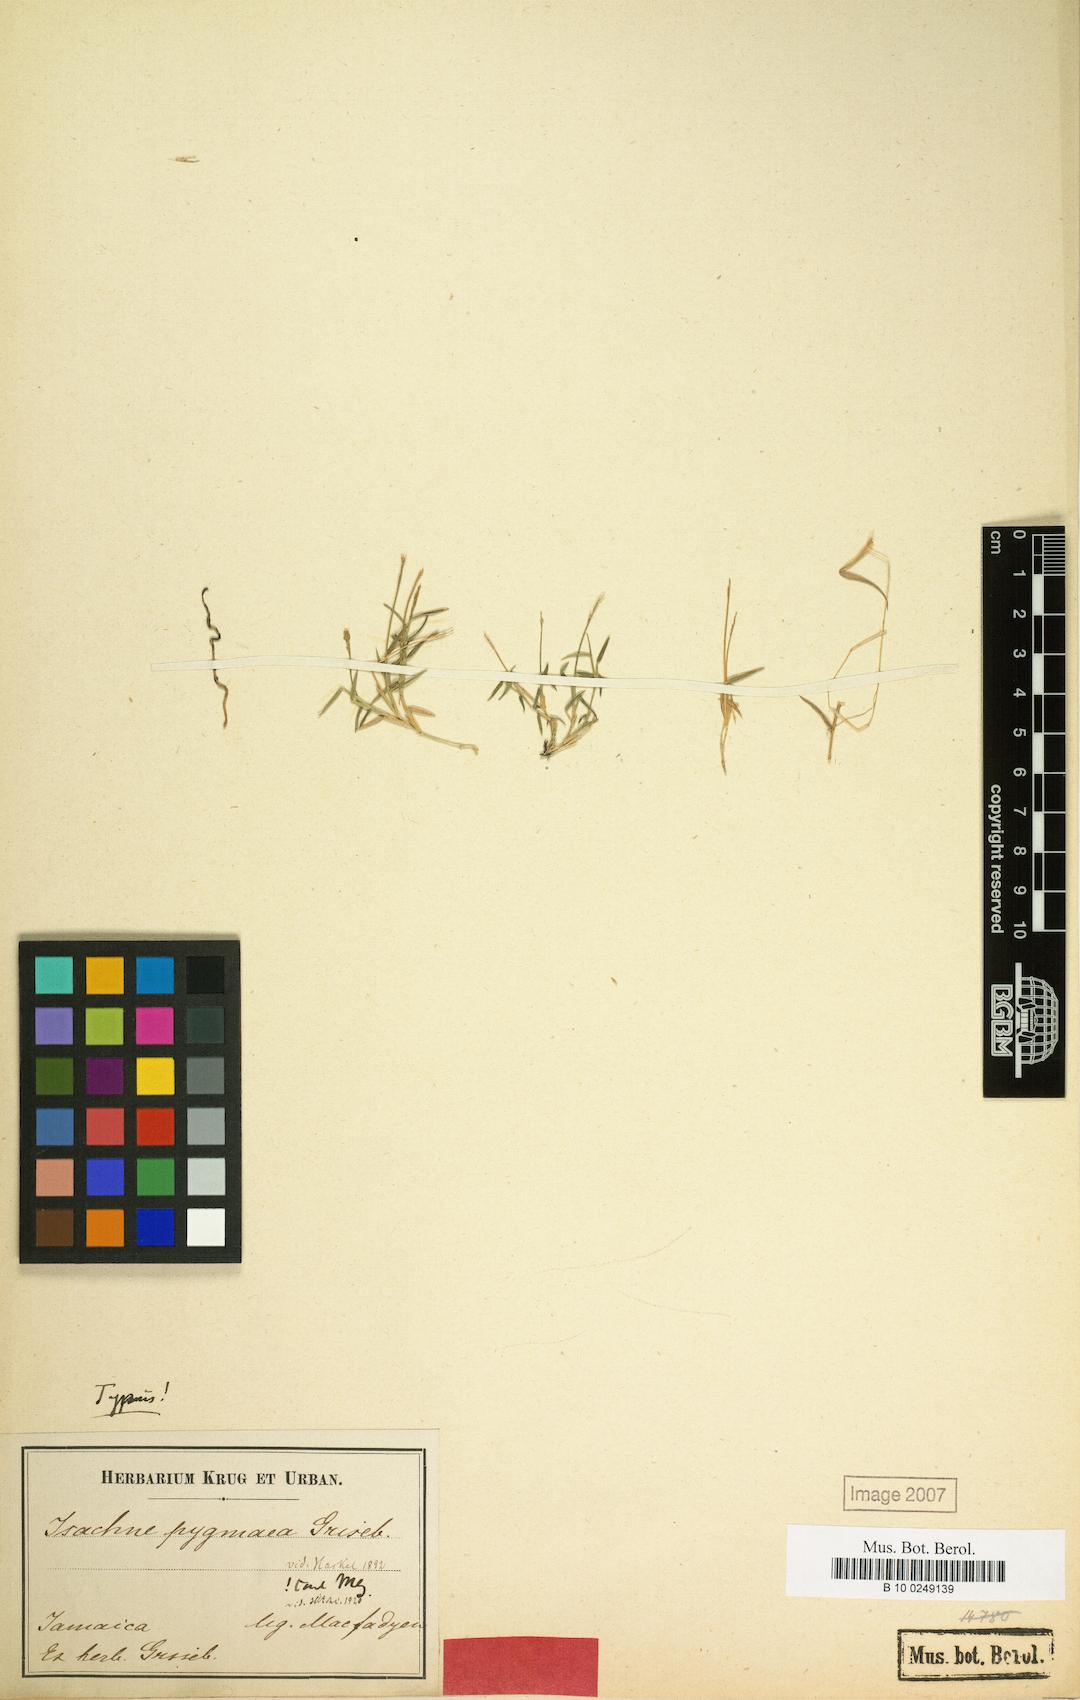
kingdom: Plantae
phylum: Tracheophyta
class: Liliopsida
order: Poales
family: Poaceae
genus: Isachne
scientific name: Isachne pygmaea
